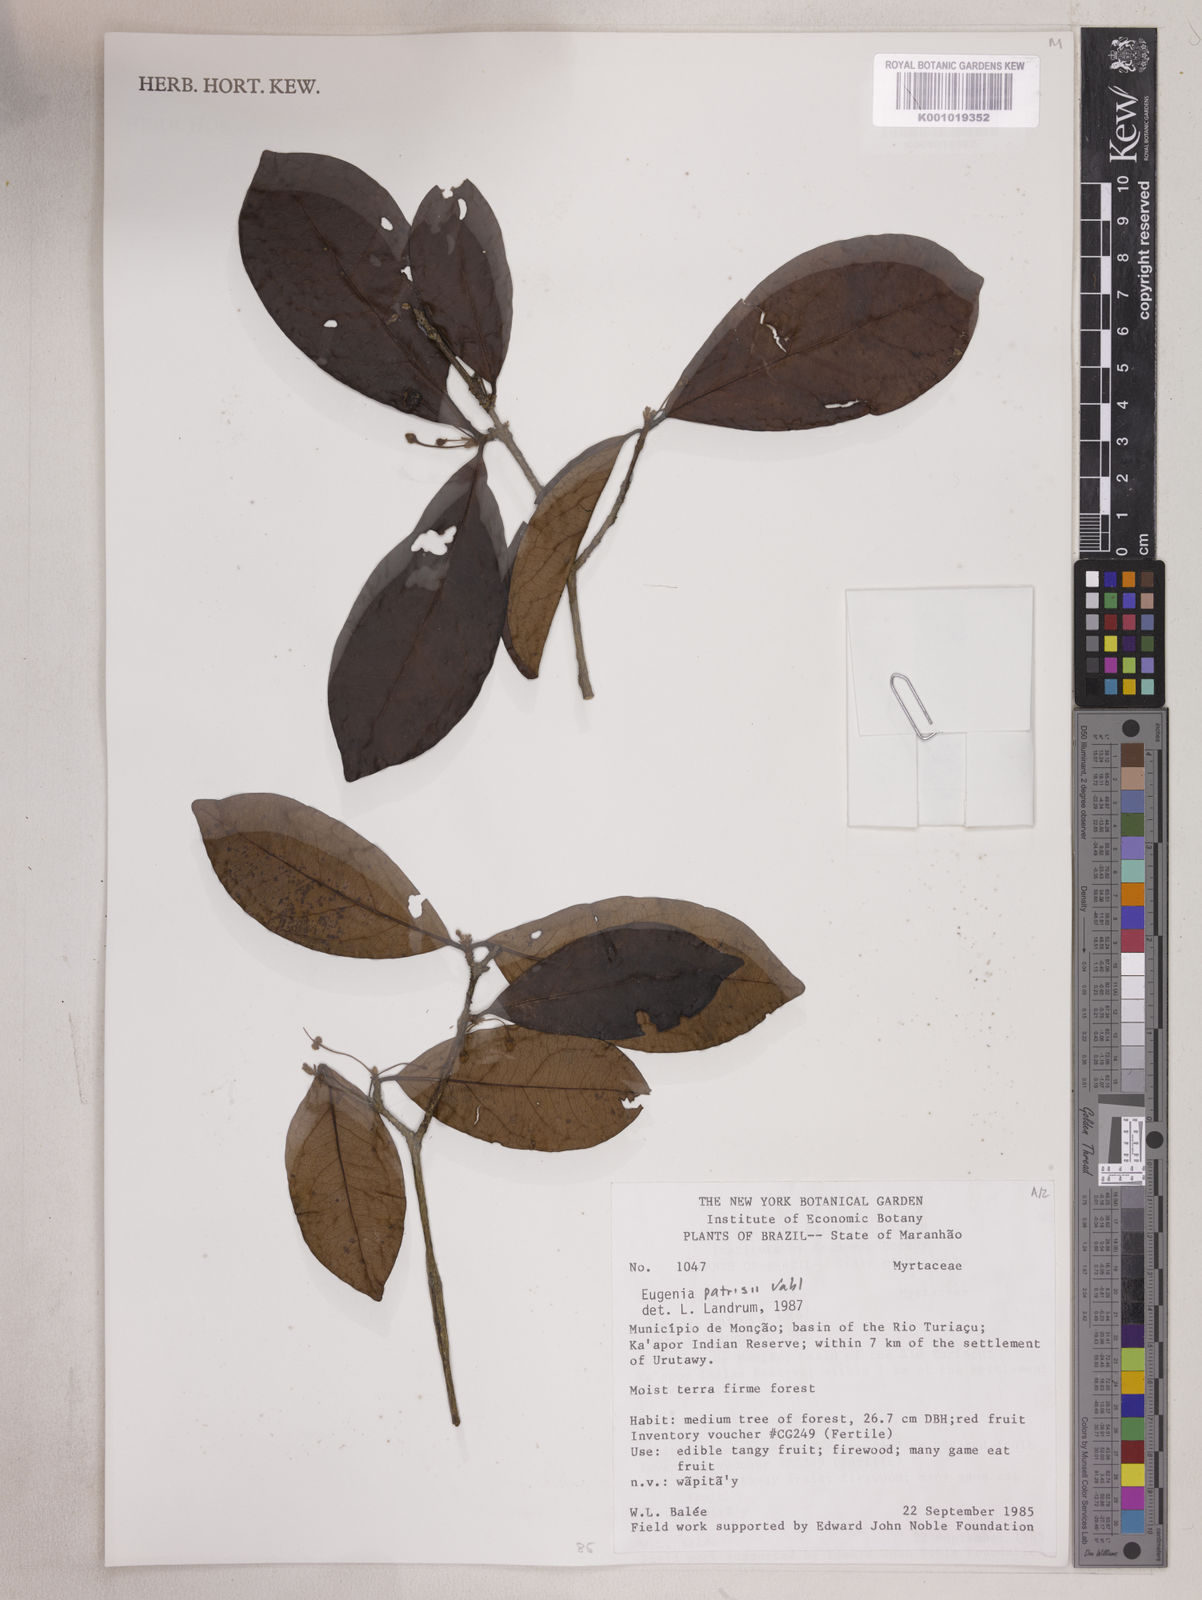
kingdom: Plantae
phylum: Tracheophyta
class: Magnoliopsida
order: Myrtales
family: Myrtaceae
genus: Eugenia
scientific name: Eugenia patrisii
